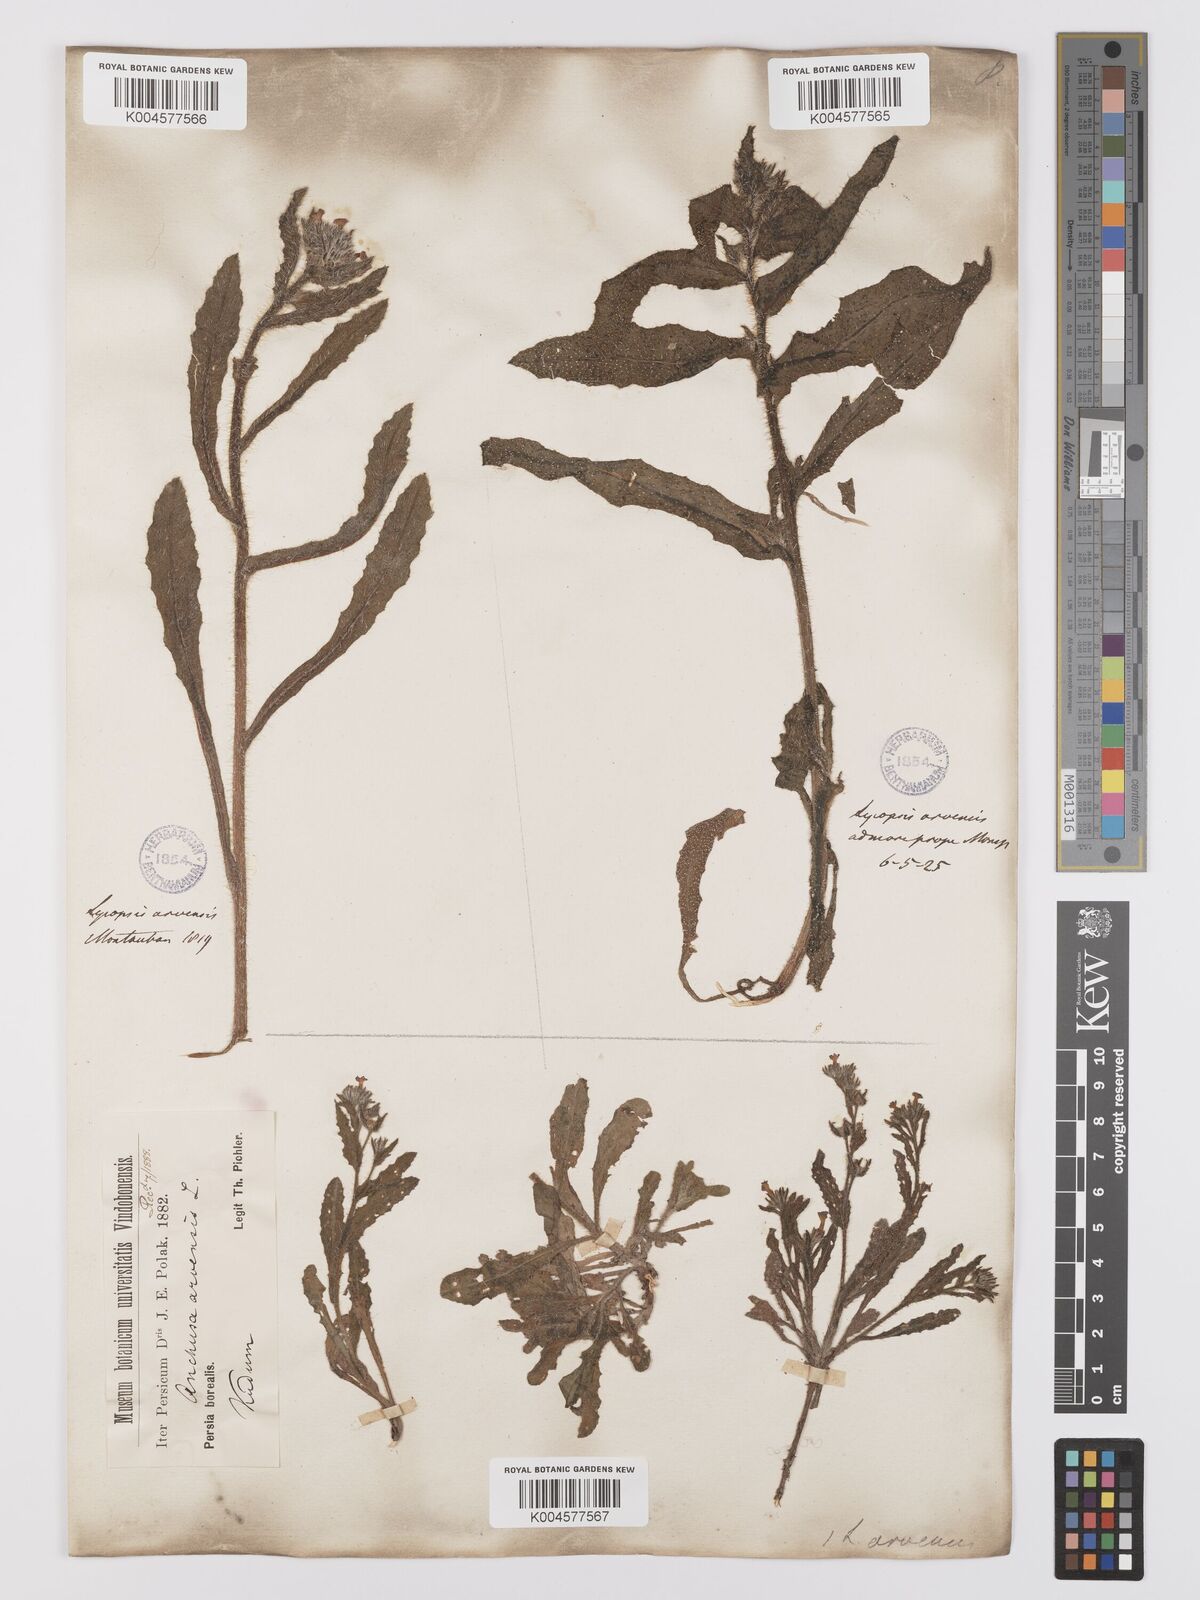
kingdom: Plantae
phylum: Tracheophyta
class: Magnoliopsida
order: Boraginales
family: Boraginaceae
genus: Lycopsis
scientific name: Lycopsis arvensis
